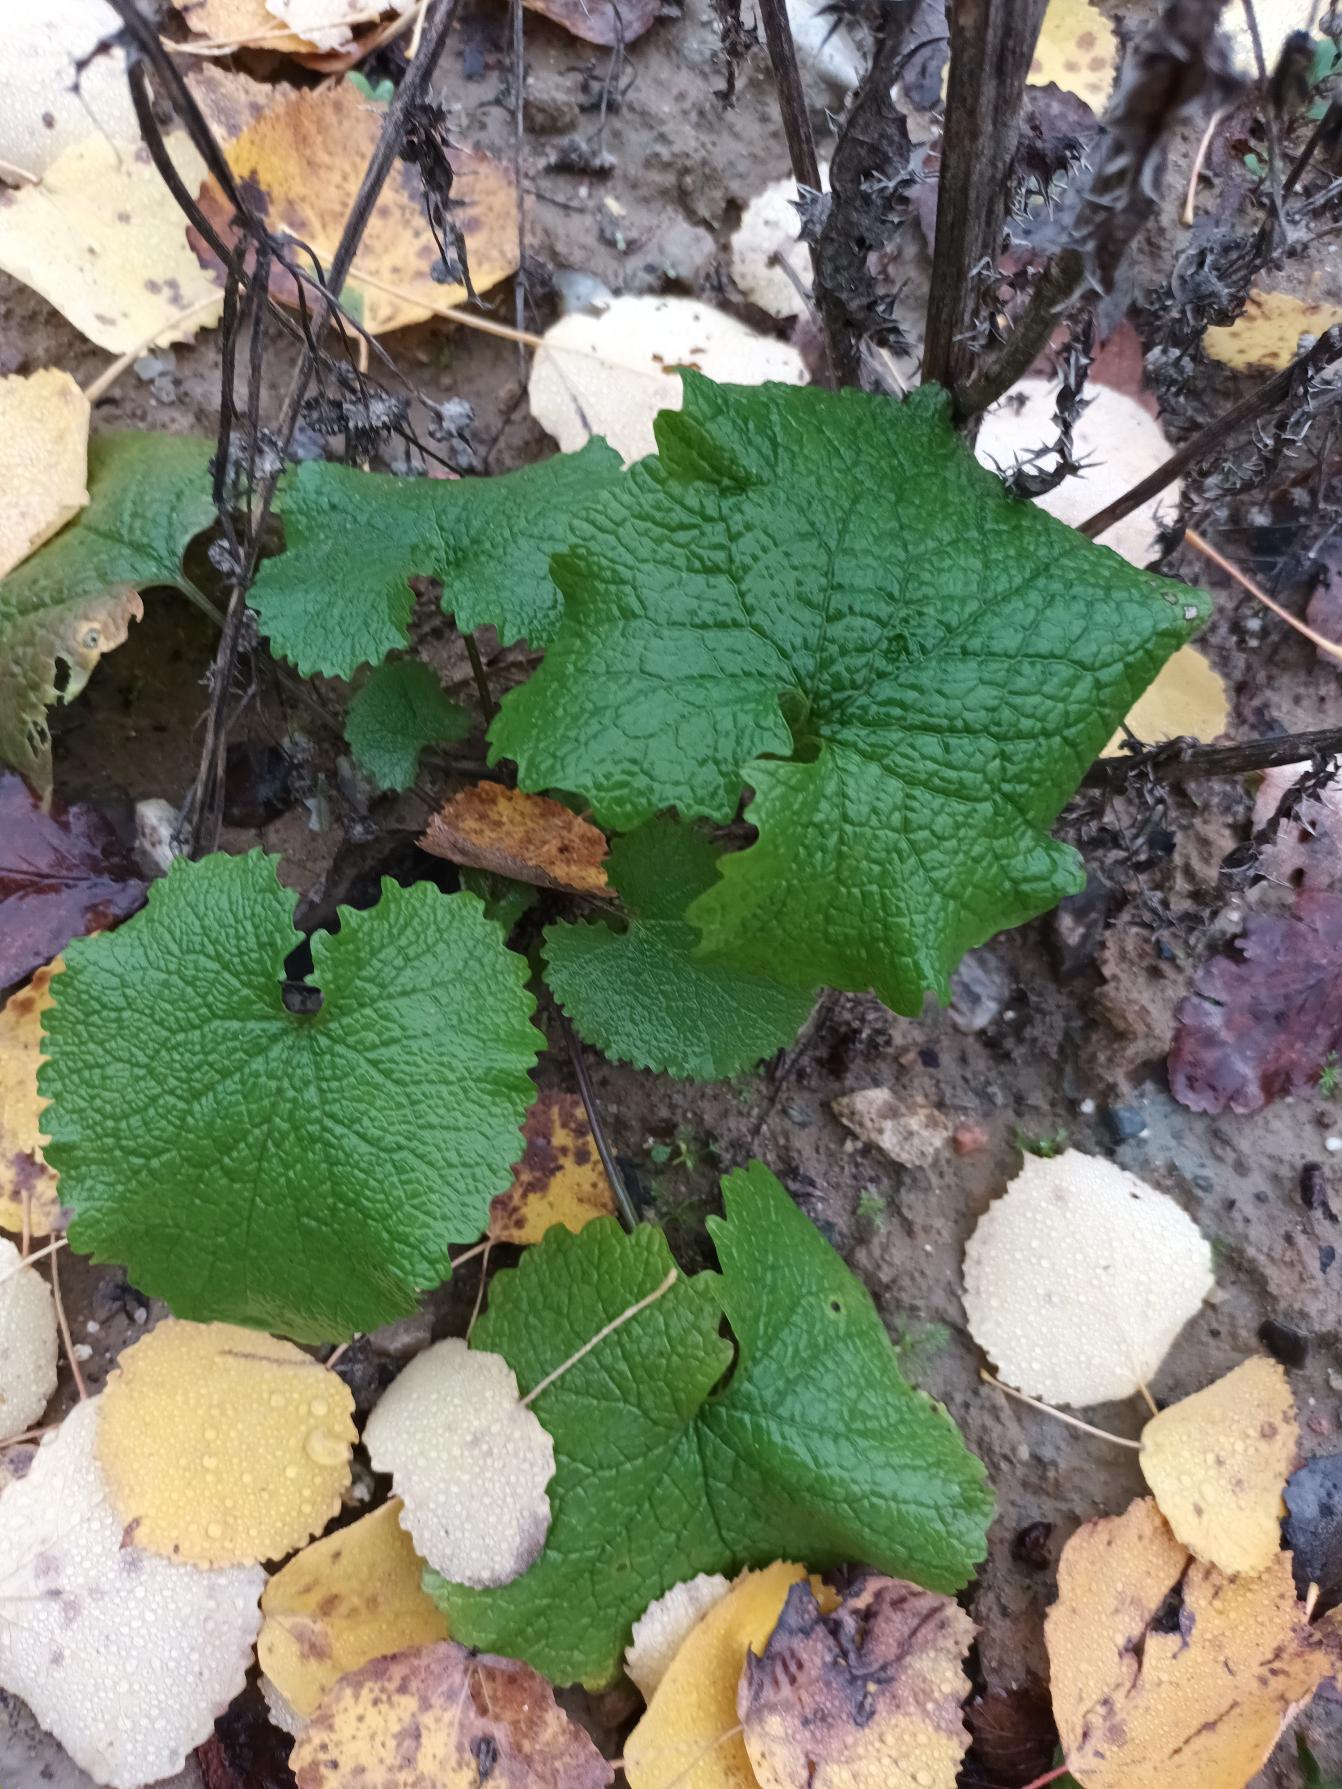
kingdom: Plantae
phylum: Tracheophyta
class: Magnoliopsida
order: Brassicales
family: Brassicaceae
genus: Alliaria
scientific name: Alliaria petiolata
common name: Løgkarse
